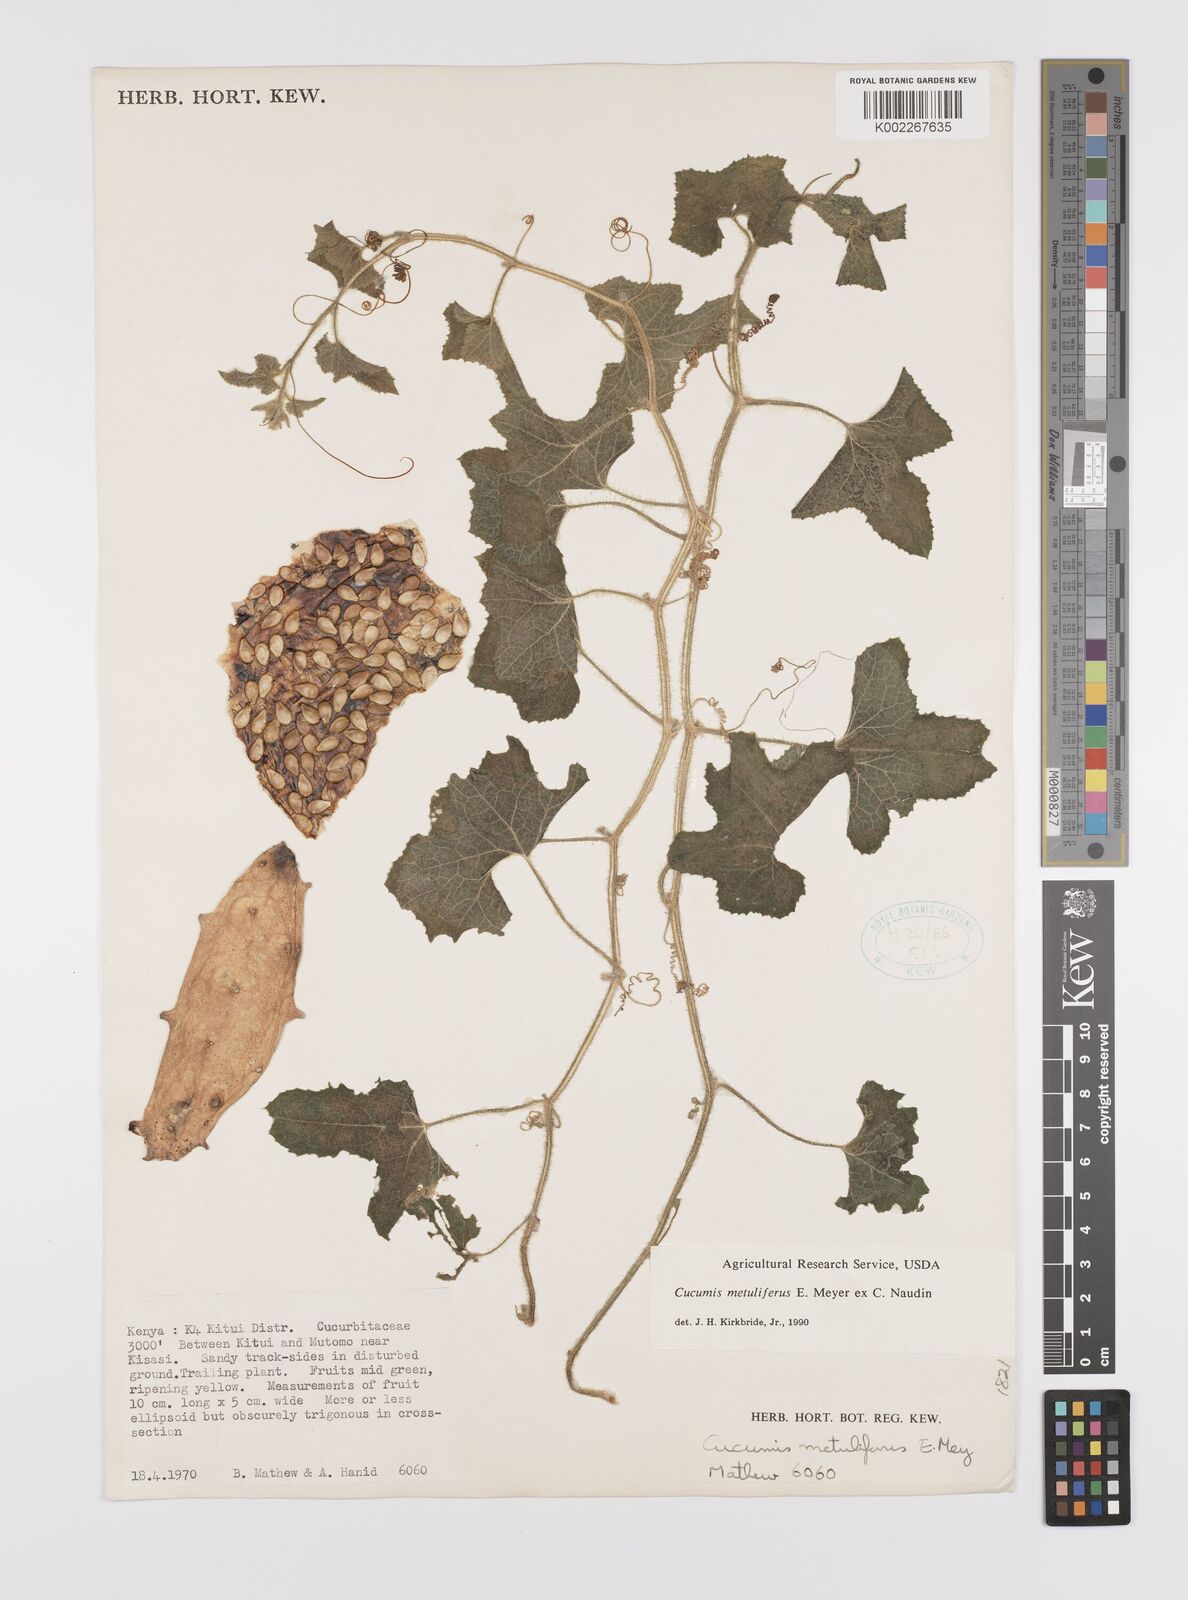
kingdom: Plantae
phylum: Tracheophyta
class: Magnoliopsida
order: Cucurbitales
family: Cucurbitaceae
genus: Cucumis
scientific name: Cucumis metuliferus
